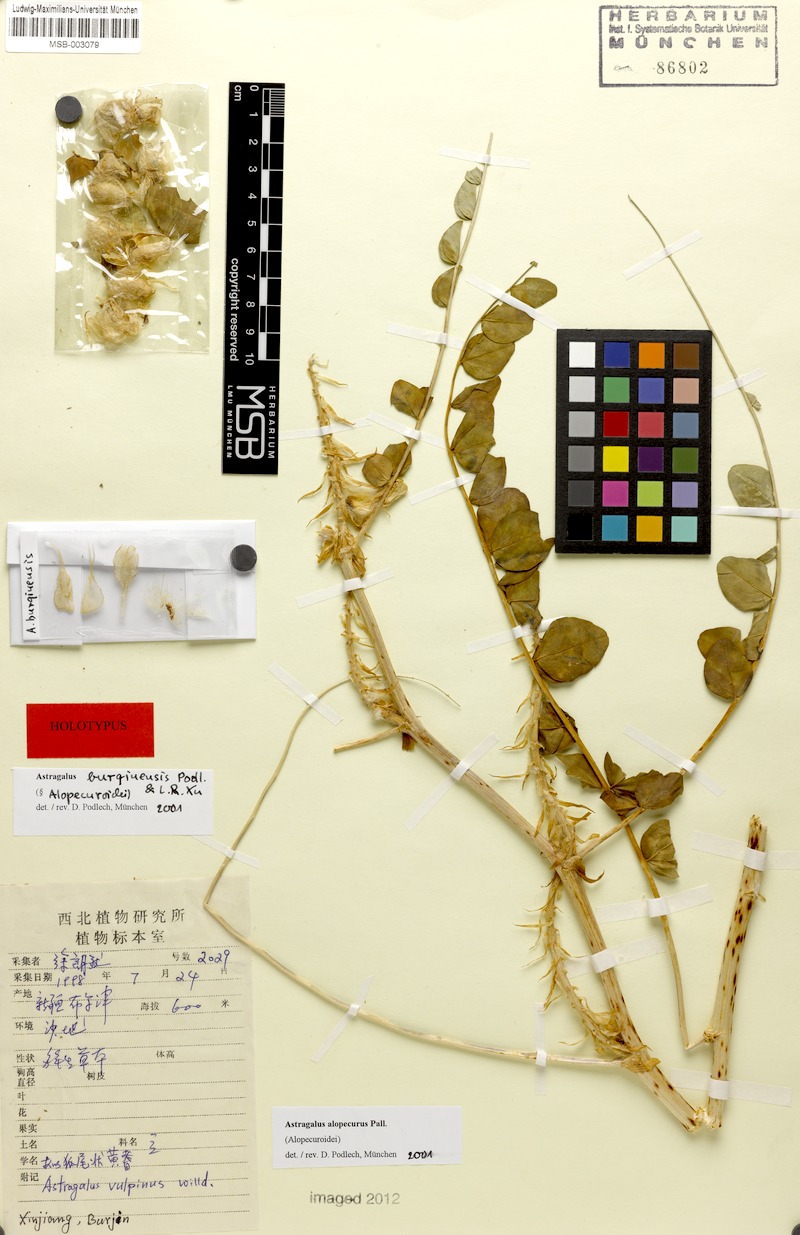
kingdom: Plantae
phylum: Tracheophyta
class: Magnoliopsida
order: Fabales
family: Fabaceae
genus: Astragalus
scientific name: Astragalus burqinensis
